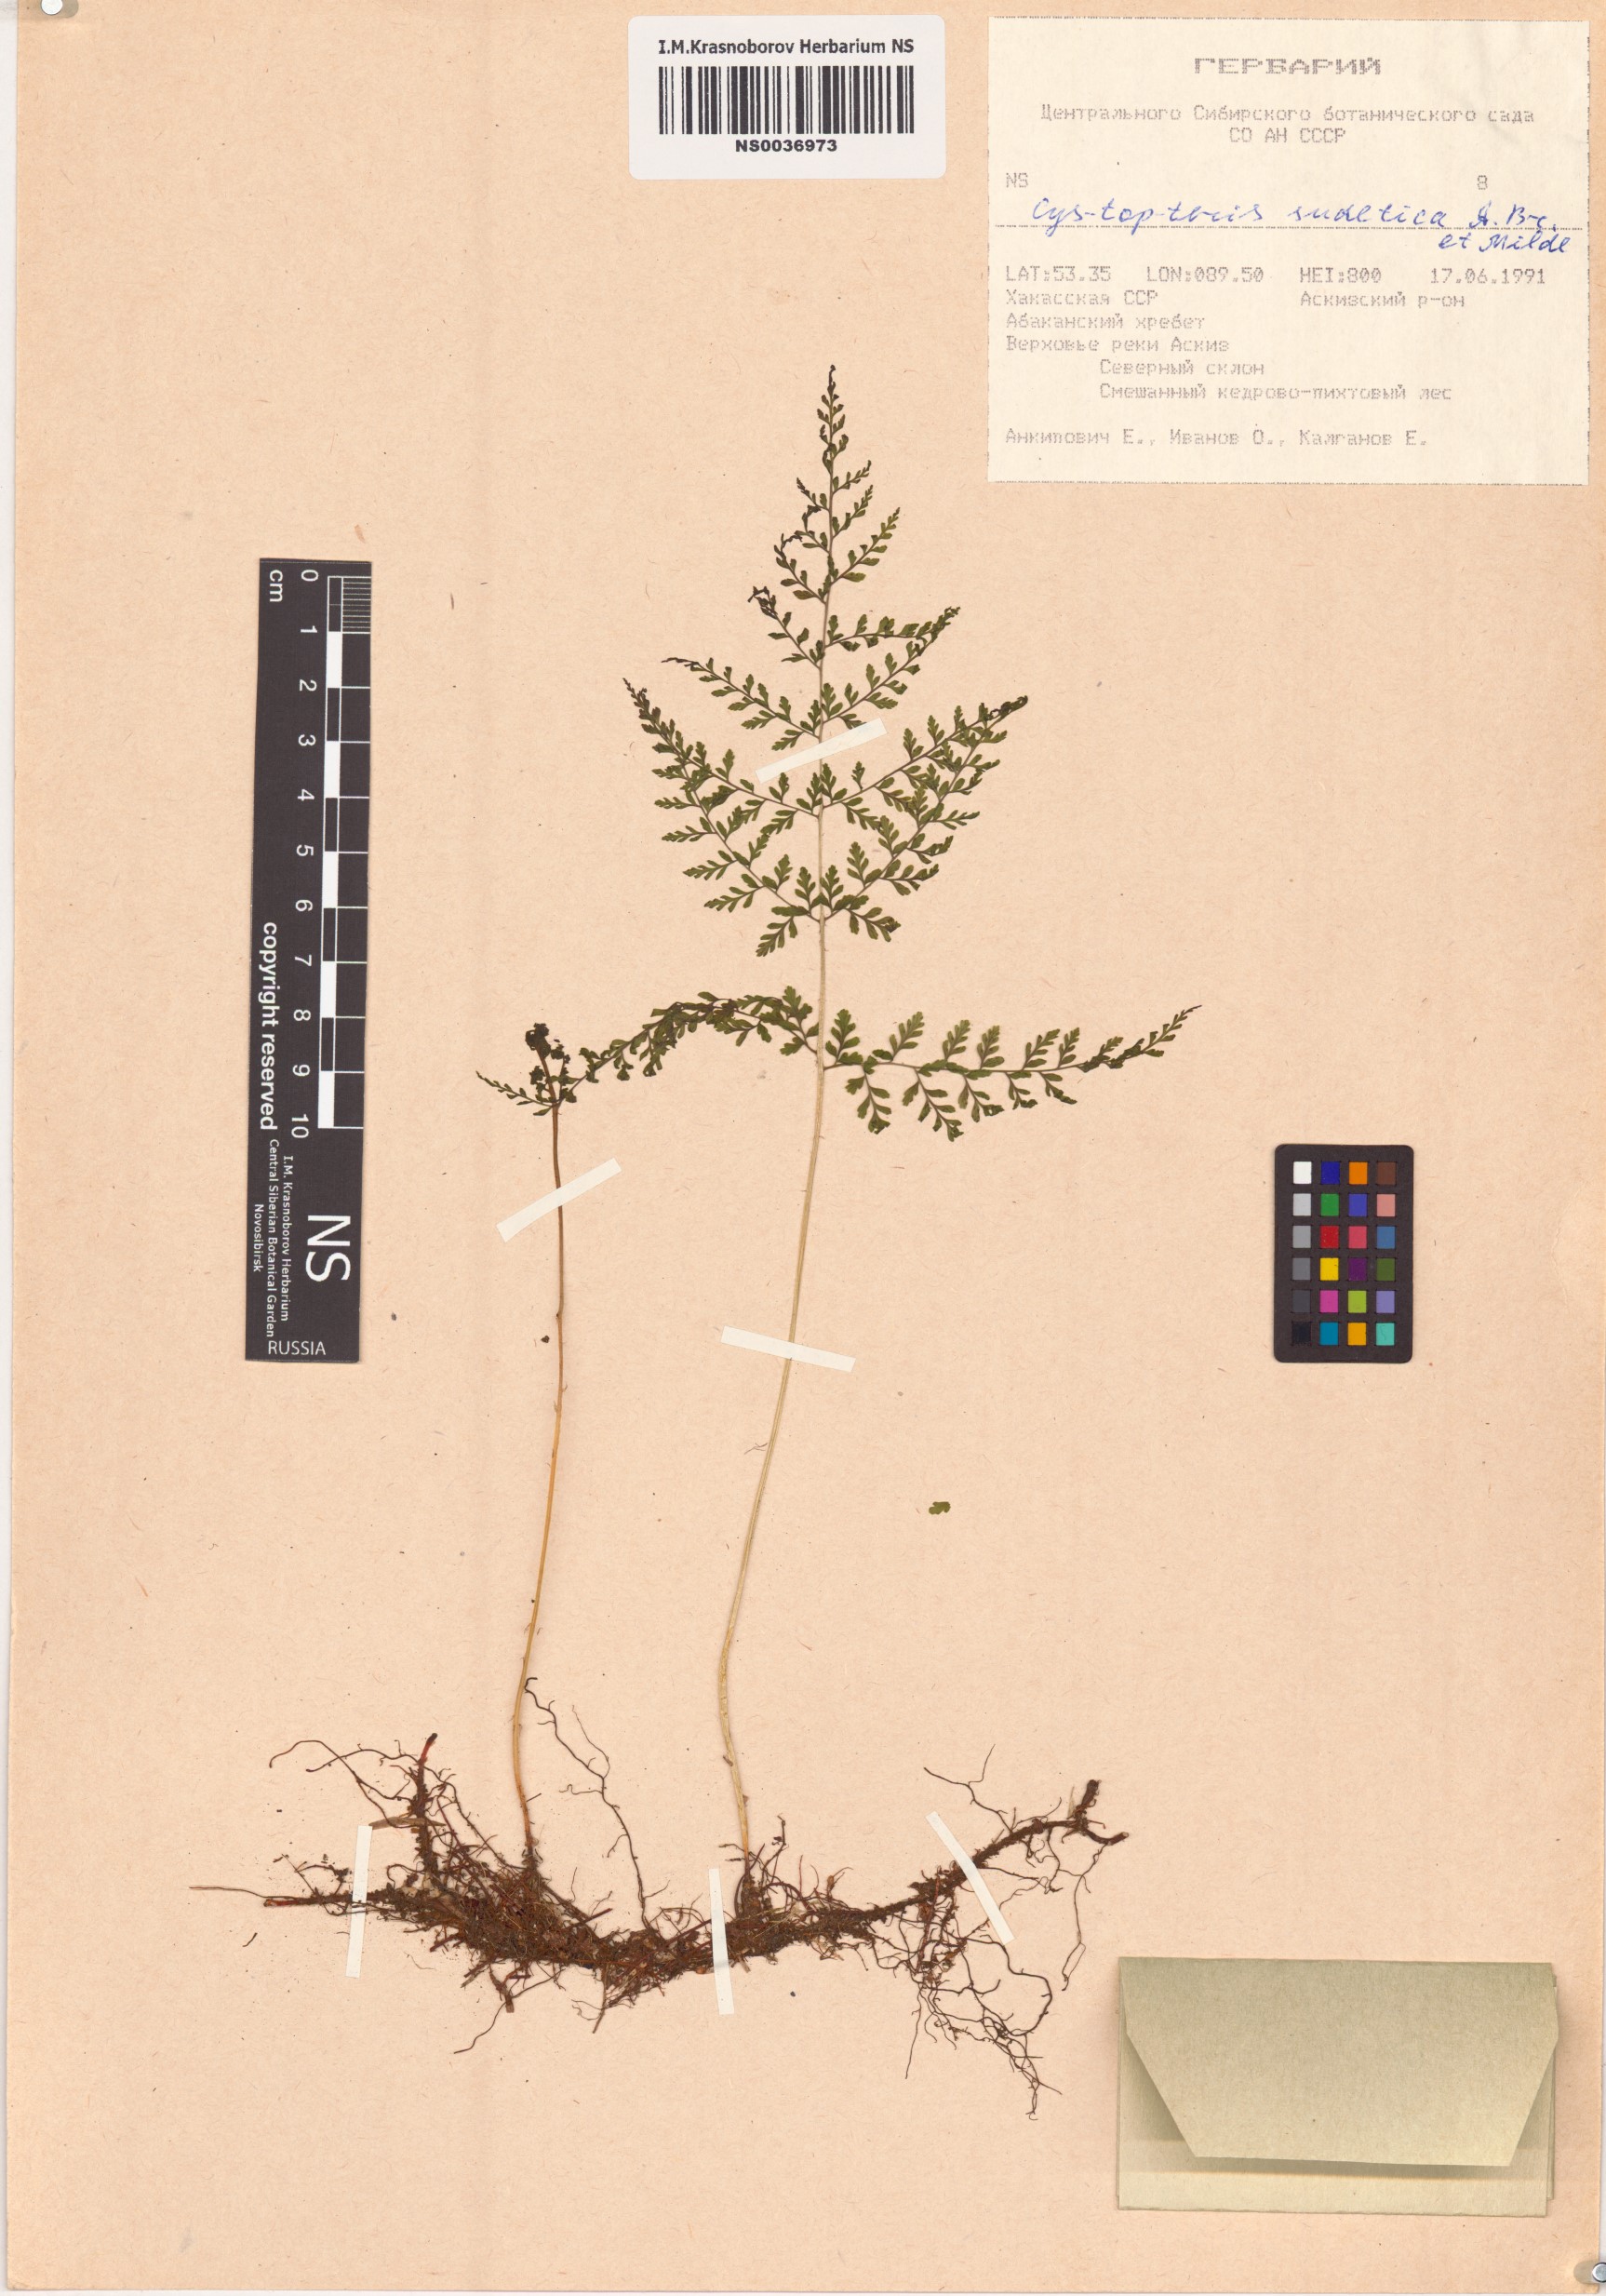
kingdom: Plantae
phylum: Tracheophyta
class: Polypodiopsida
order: Polypodiales
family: Cystopteridaceae
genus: Cystopteris
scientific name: Cystopteris sudetica
